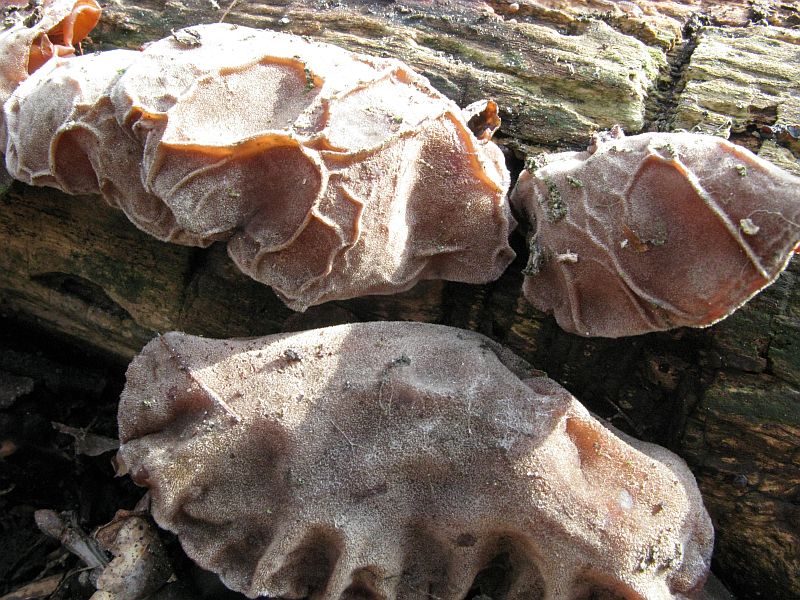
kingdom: Fungi
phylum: Basidiomycota
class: Agaricomycetes
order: Auriculariales
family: Auriculariaceae
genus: Auricularia
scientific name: Auricularia auricula-judae
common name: almindelig judasøre
